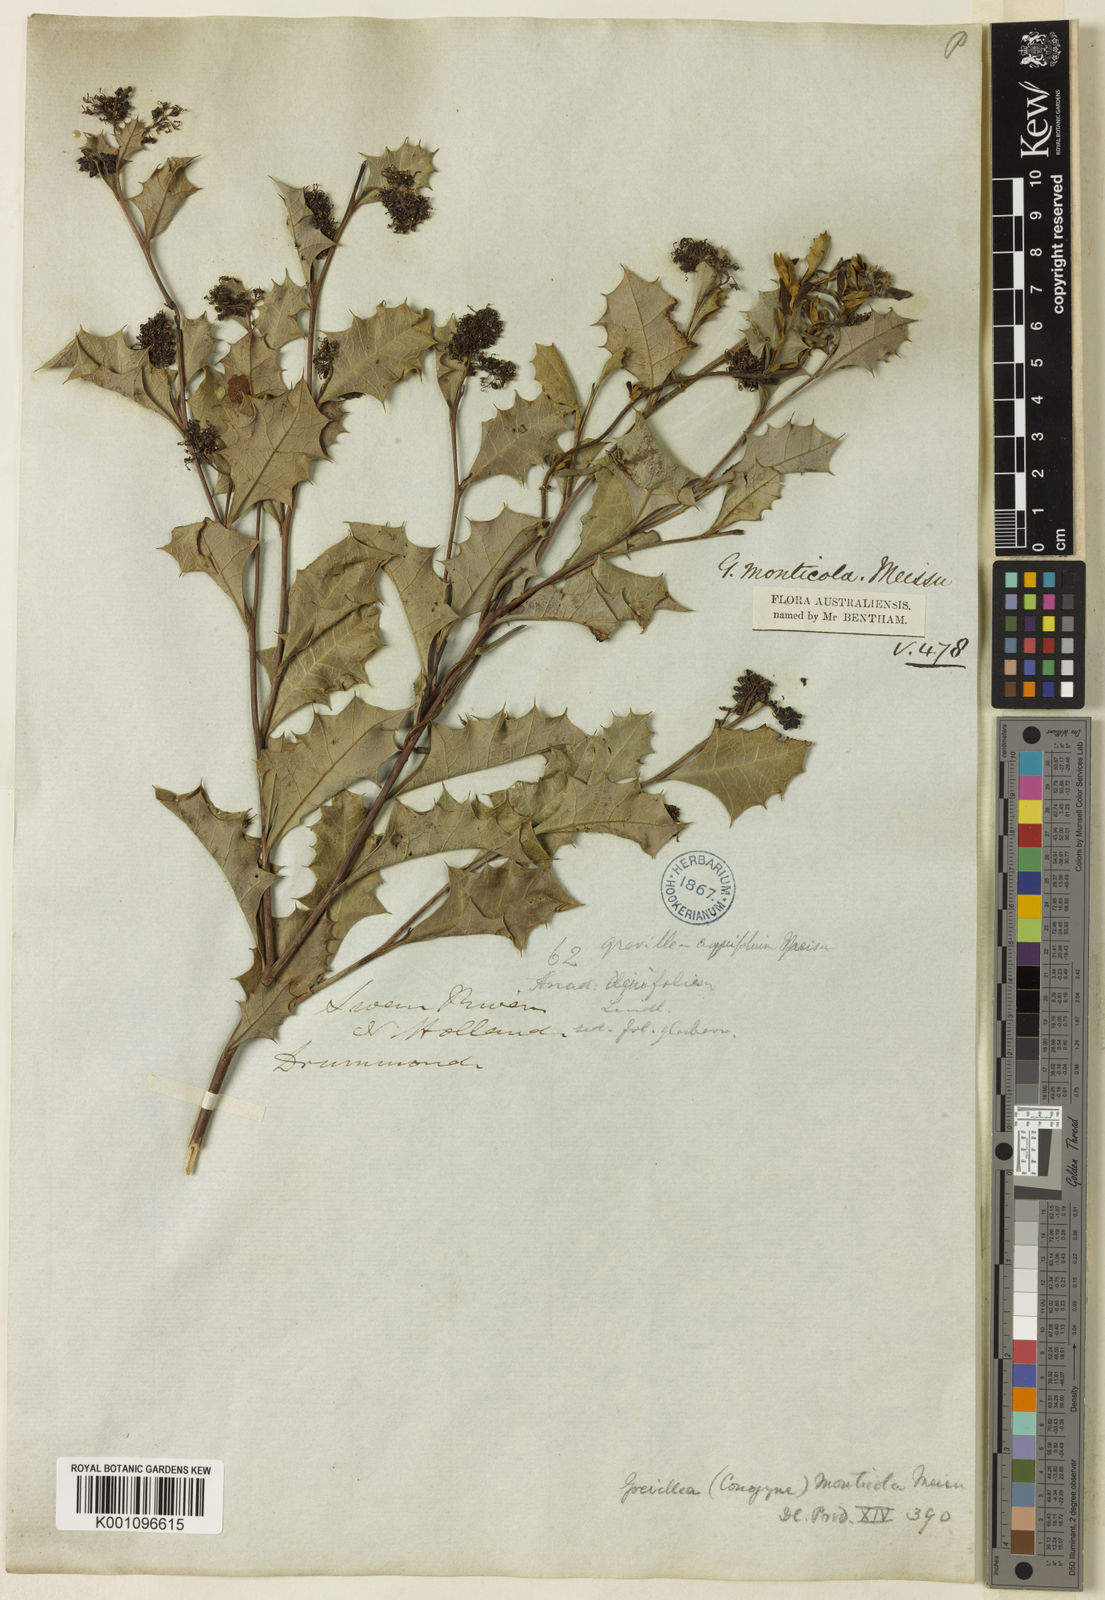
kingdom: Plantae
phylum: Tracheophyta
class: Magnoliopsida
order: Proteales
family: Proteaceae
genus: Grevillea
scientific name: Grevillea monticola
